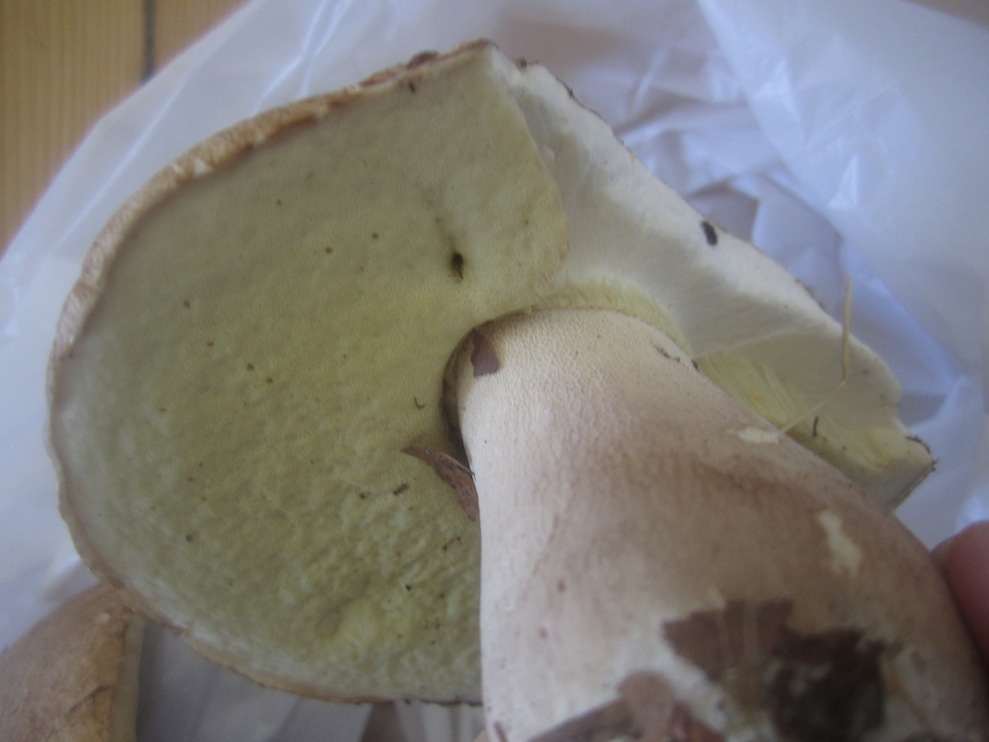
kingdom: Fungi
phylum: Basidiomycota
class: Agaricomycetes
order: Boletales
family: Boletaceae
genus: Boletus
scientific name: Boletus reticulatus
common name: sommer-rørhat
